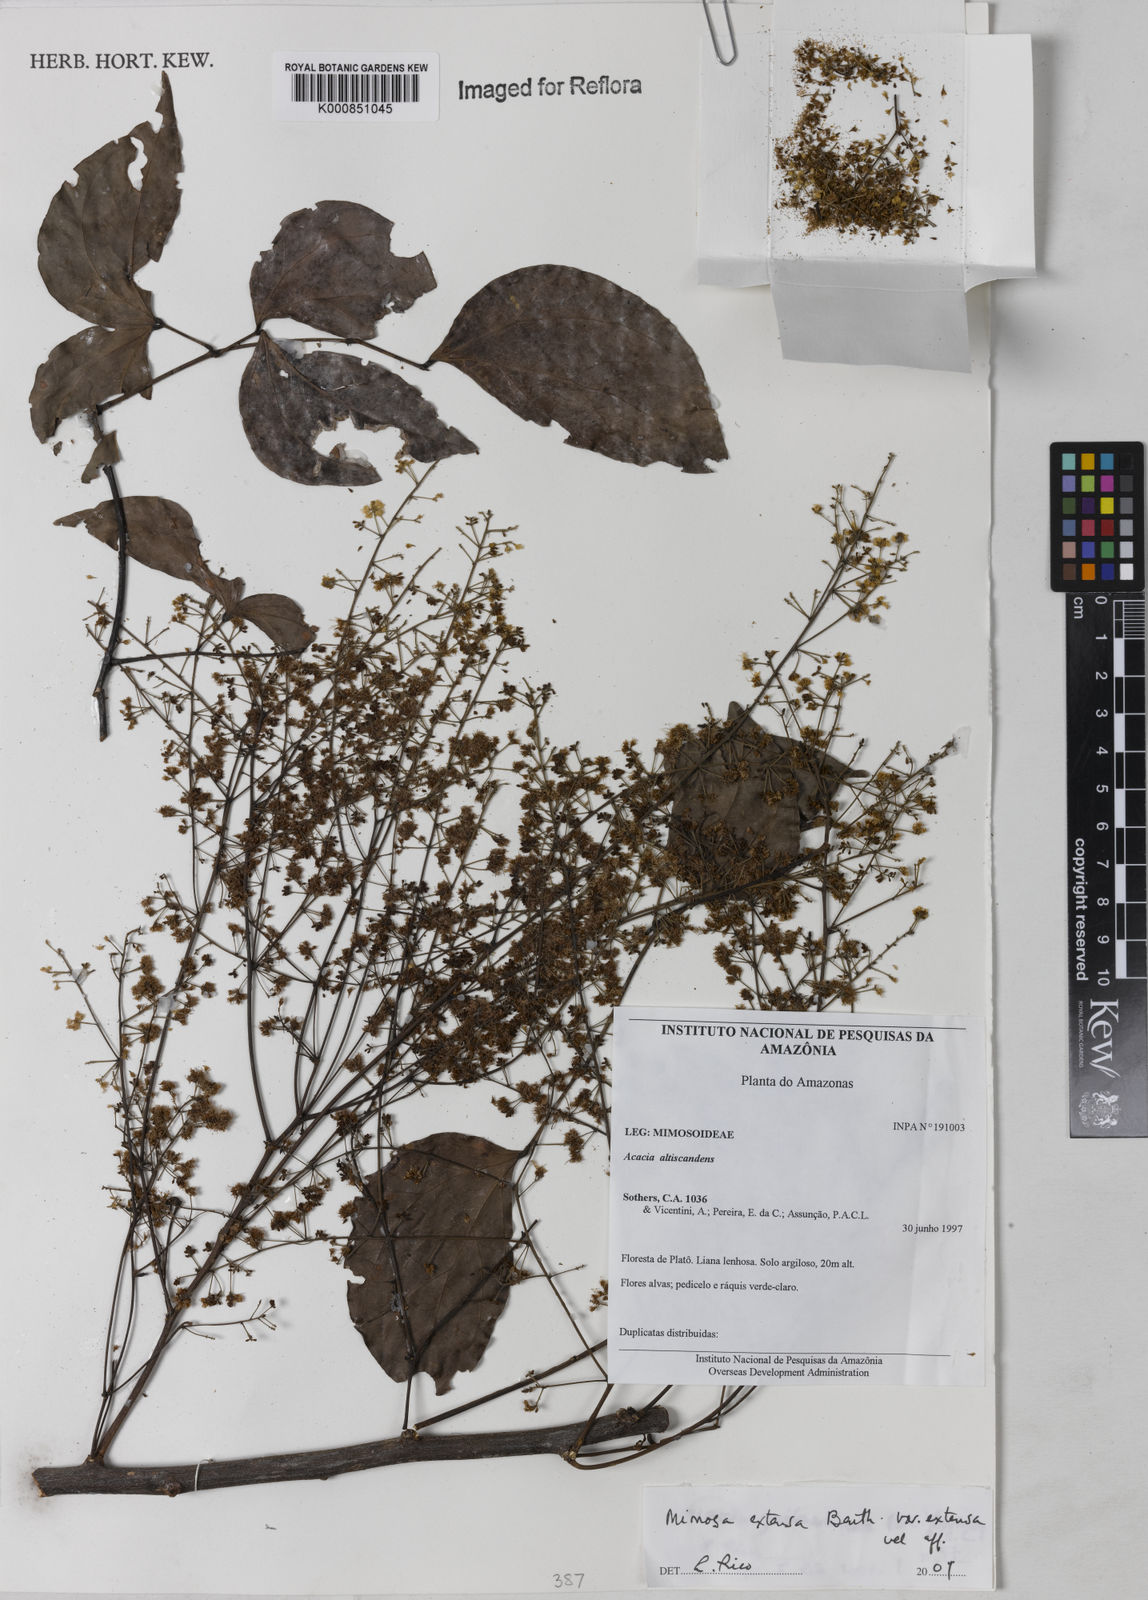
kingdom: Plantae
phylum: Tracheophyta
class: Magnoliopsida
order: Fabales
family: Fabaceae
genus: Mimosa
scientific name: Mimosa extensa
